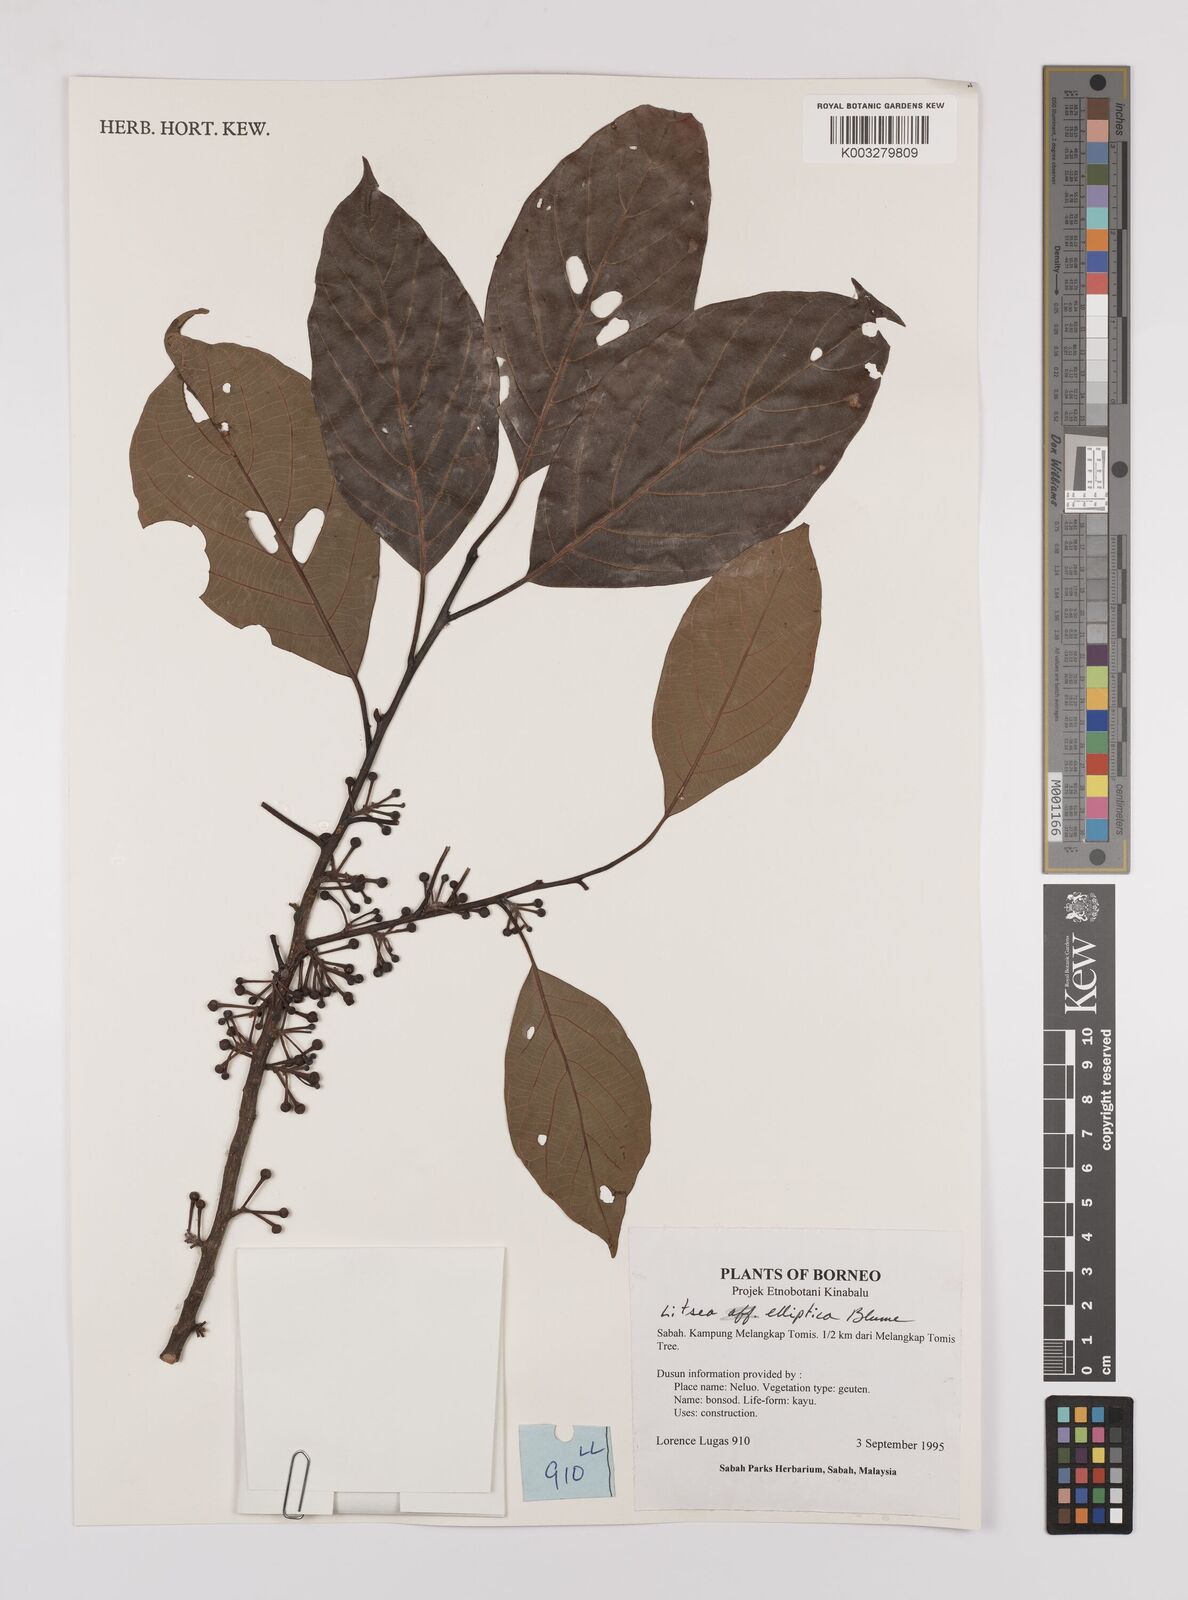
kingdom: Plantae
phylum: Tracheophyta
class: Magnoliopsida
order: Laurales
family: Lauraceae
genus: Litsea
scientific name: Litsea elliptica
